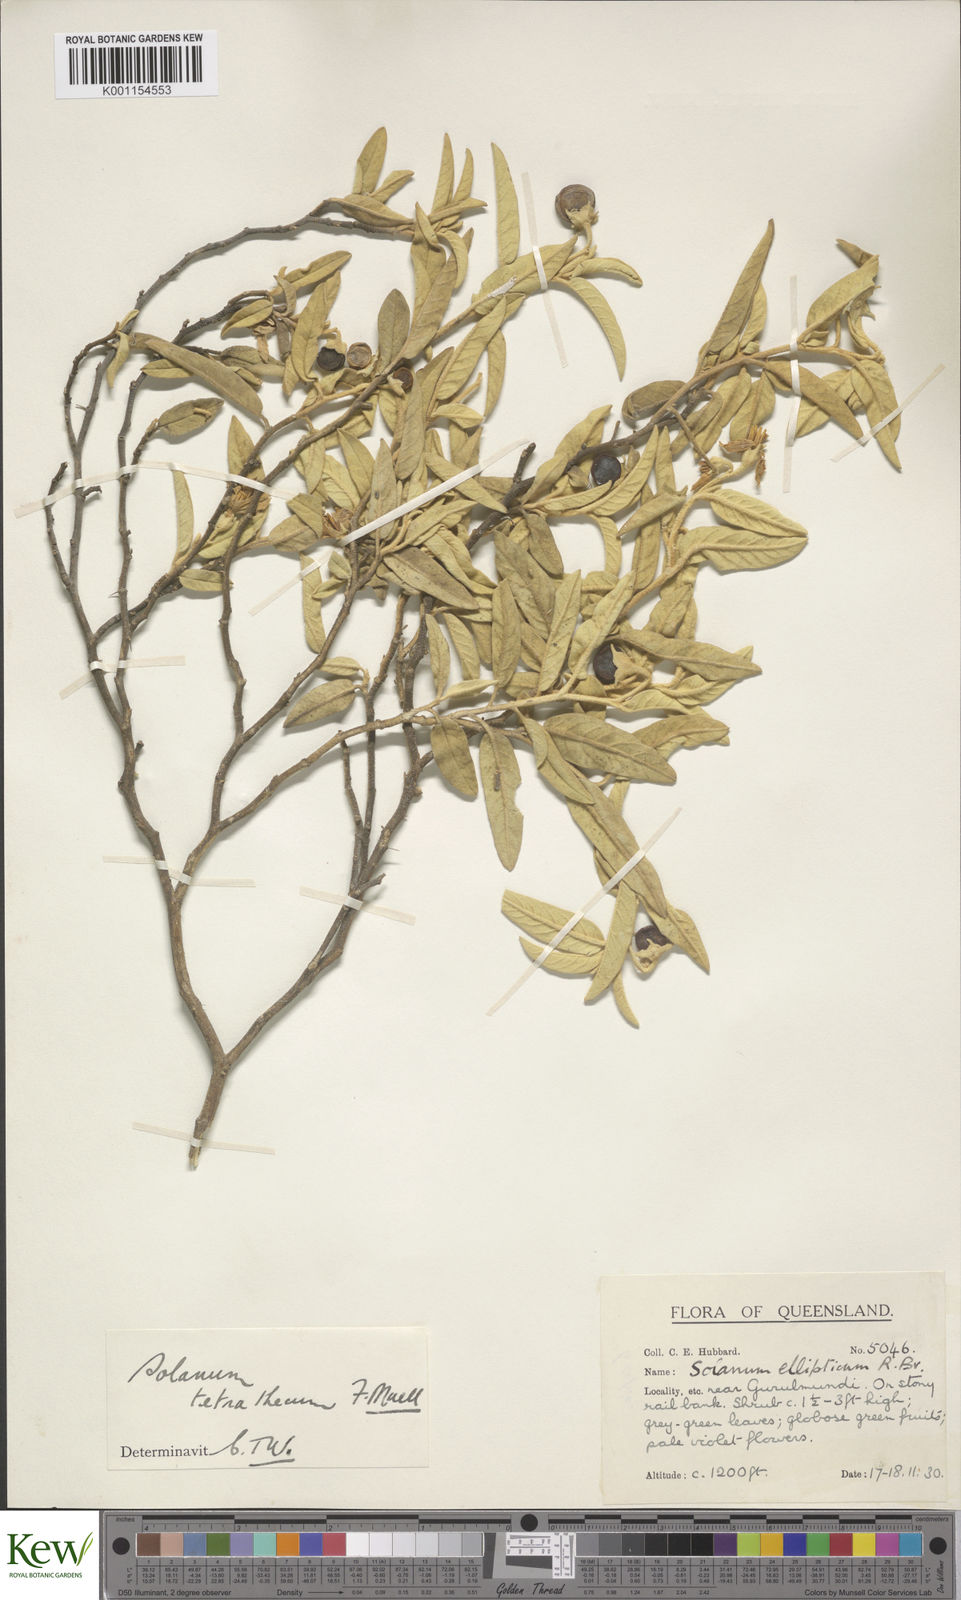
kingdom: Plantae
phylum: Tracheophyta
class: Magnoliopsida
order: Solanales
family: Solanaceae
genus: Solanum
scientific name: Solanum tetrathecum
